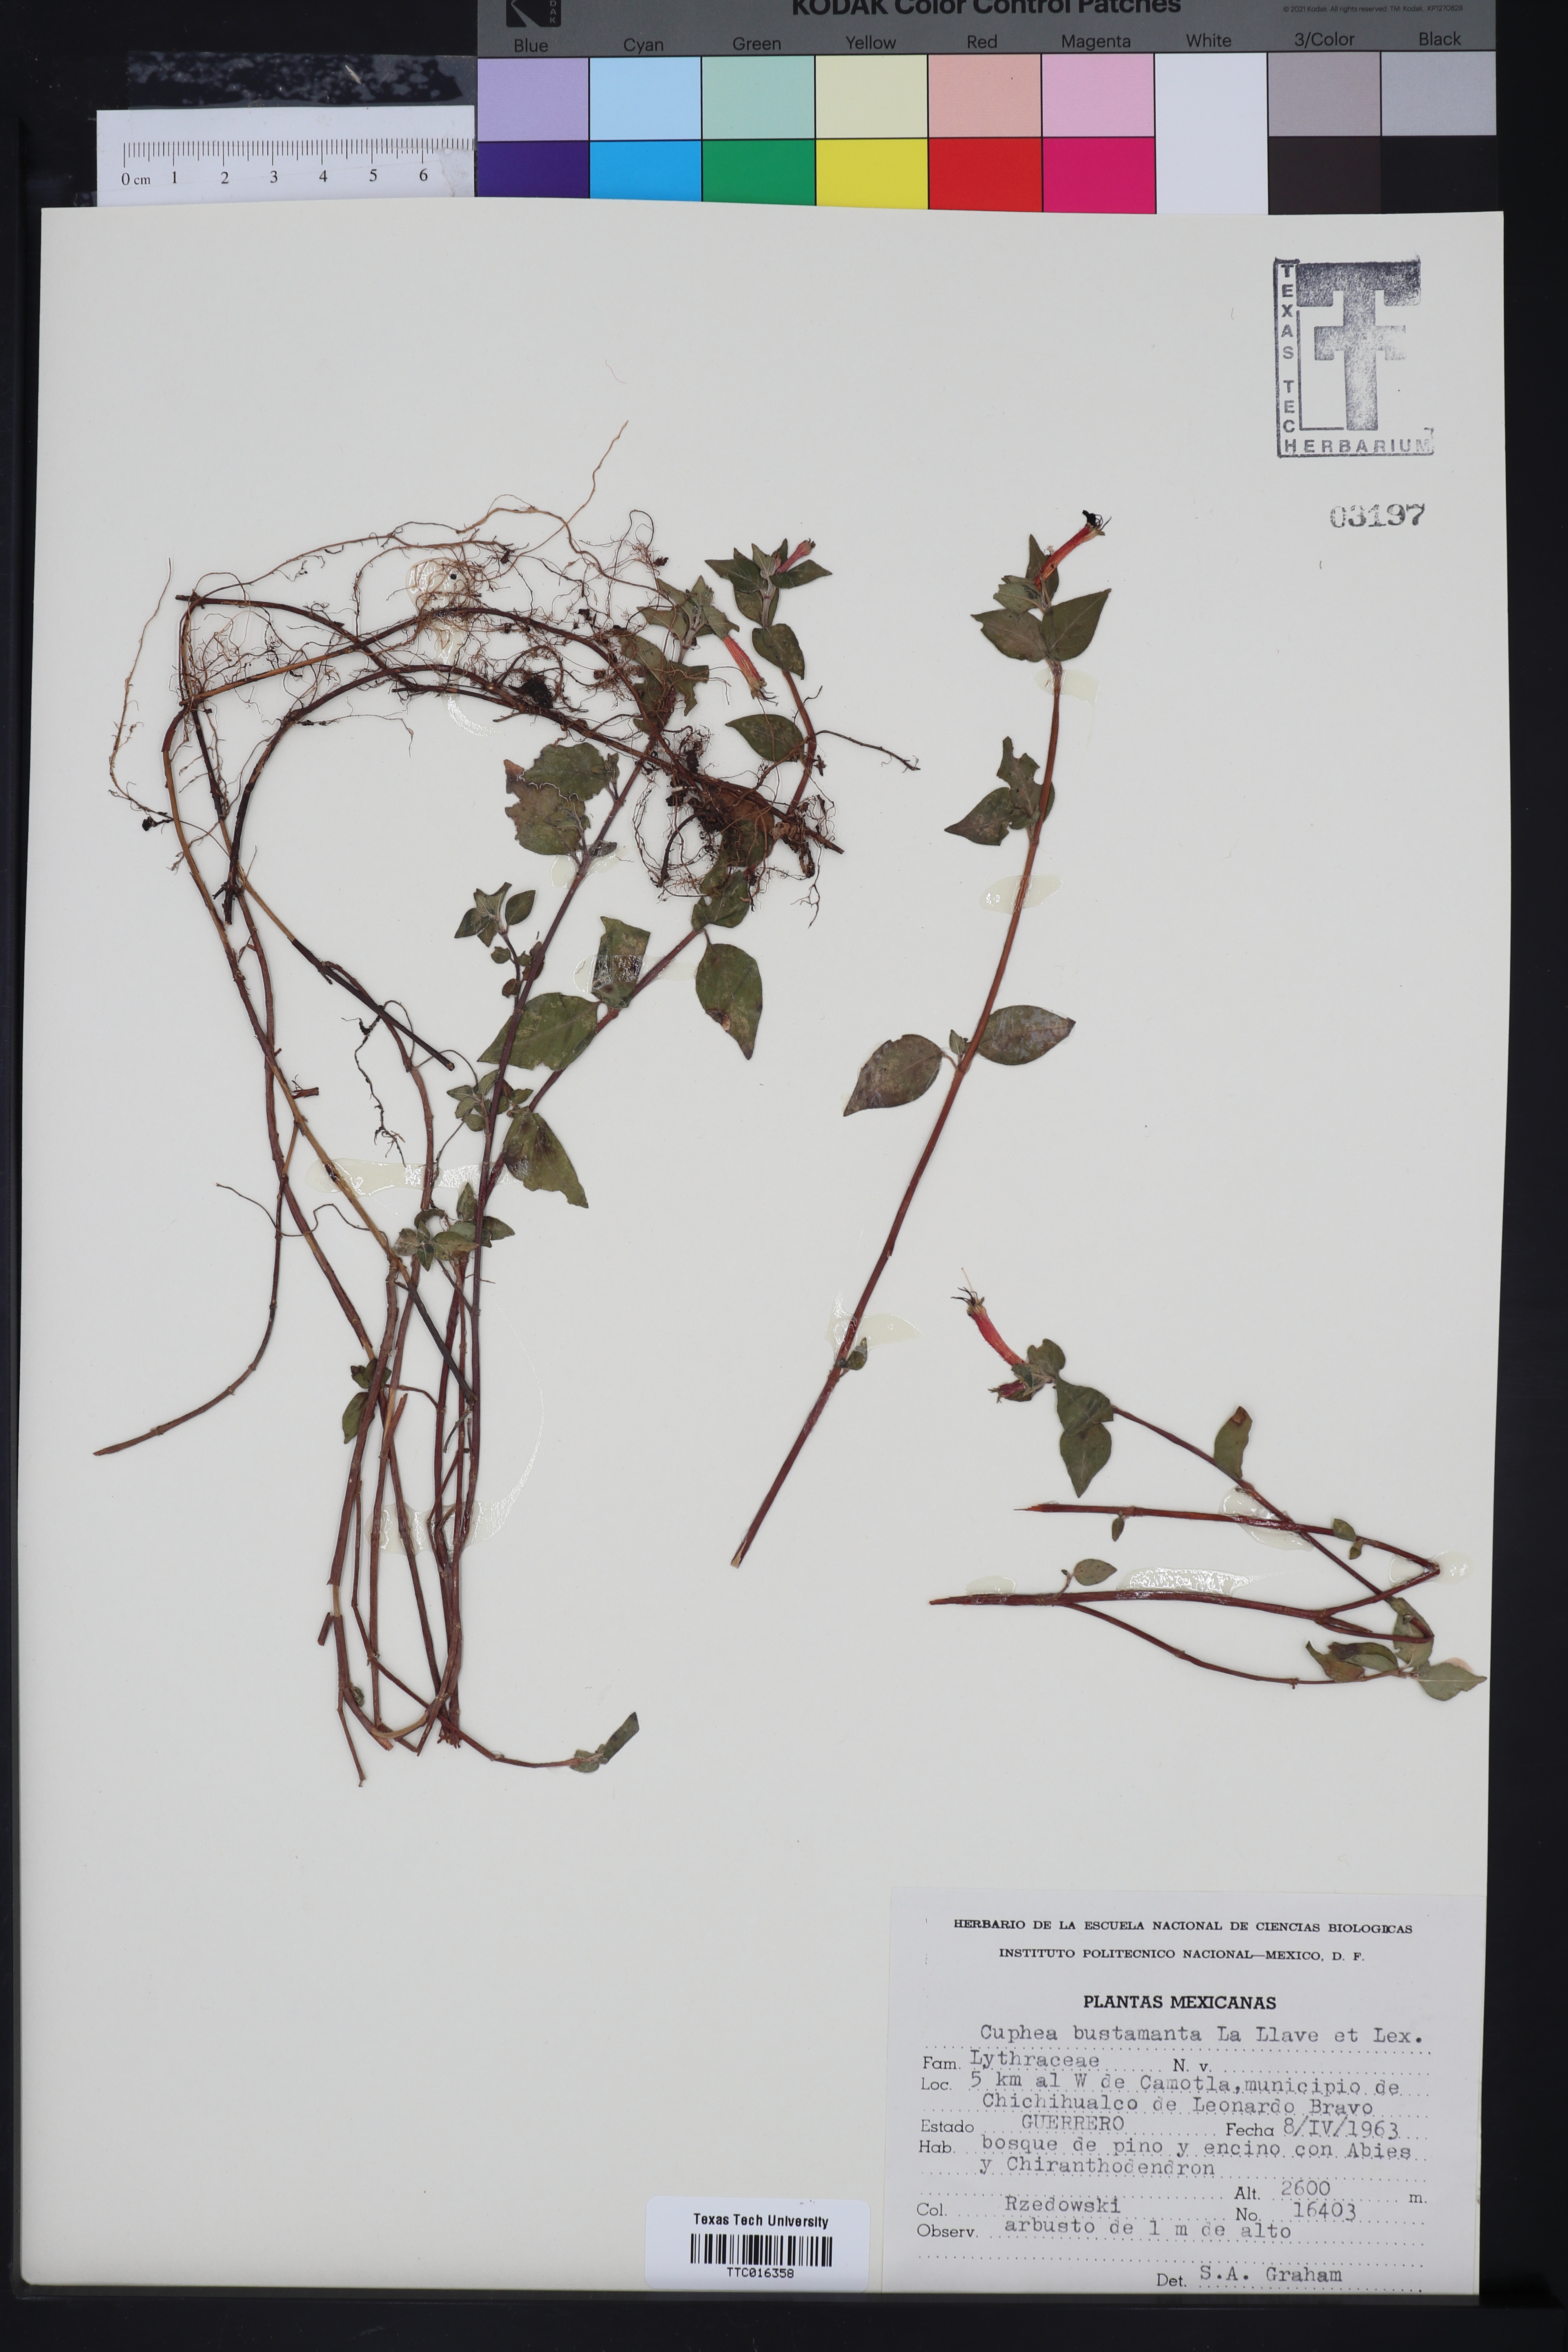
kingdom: Plantae
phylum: Tracheophyta
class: Magnoliopsida
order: Myrtales
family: Lythraceae
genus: Cuphea
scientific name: Cuphea bustamanta
